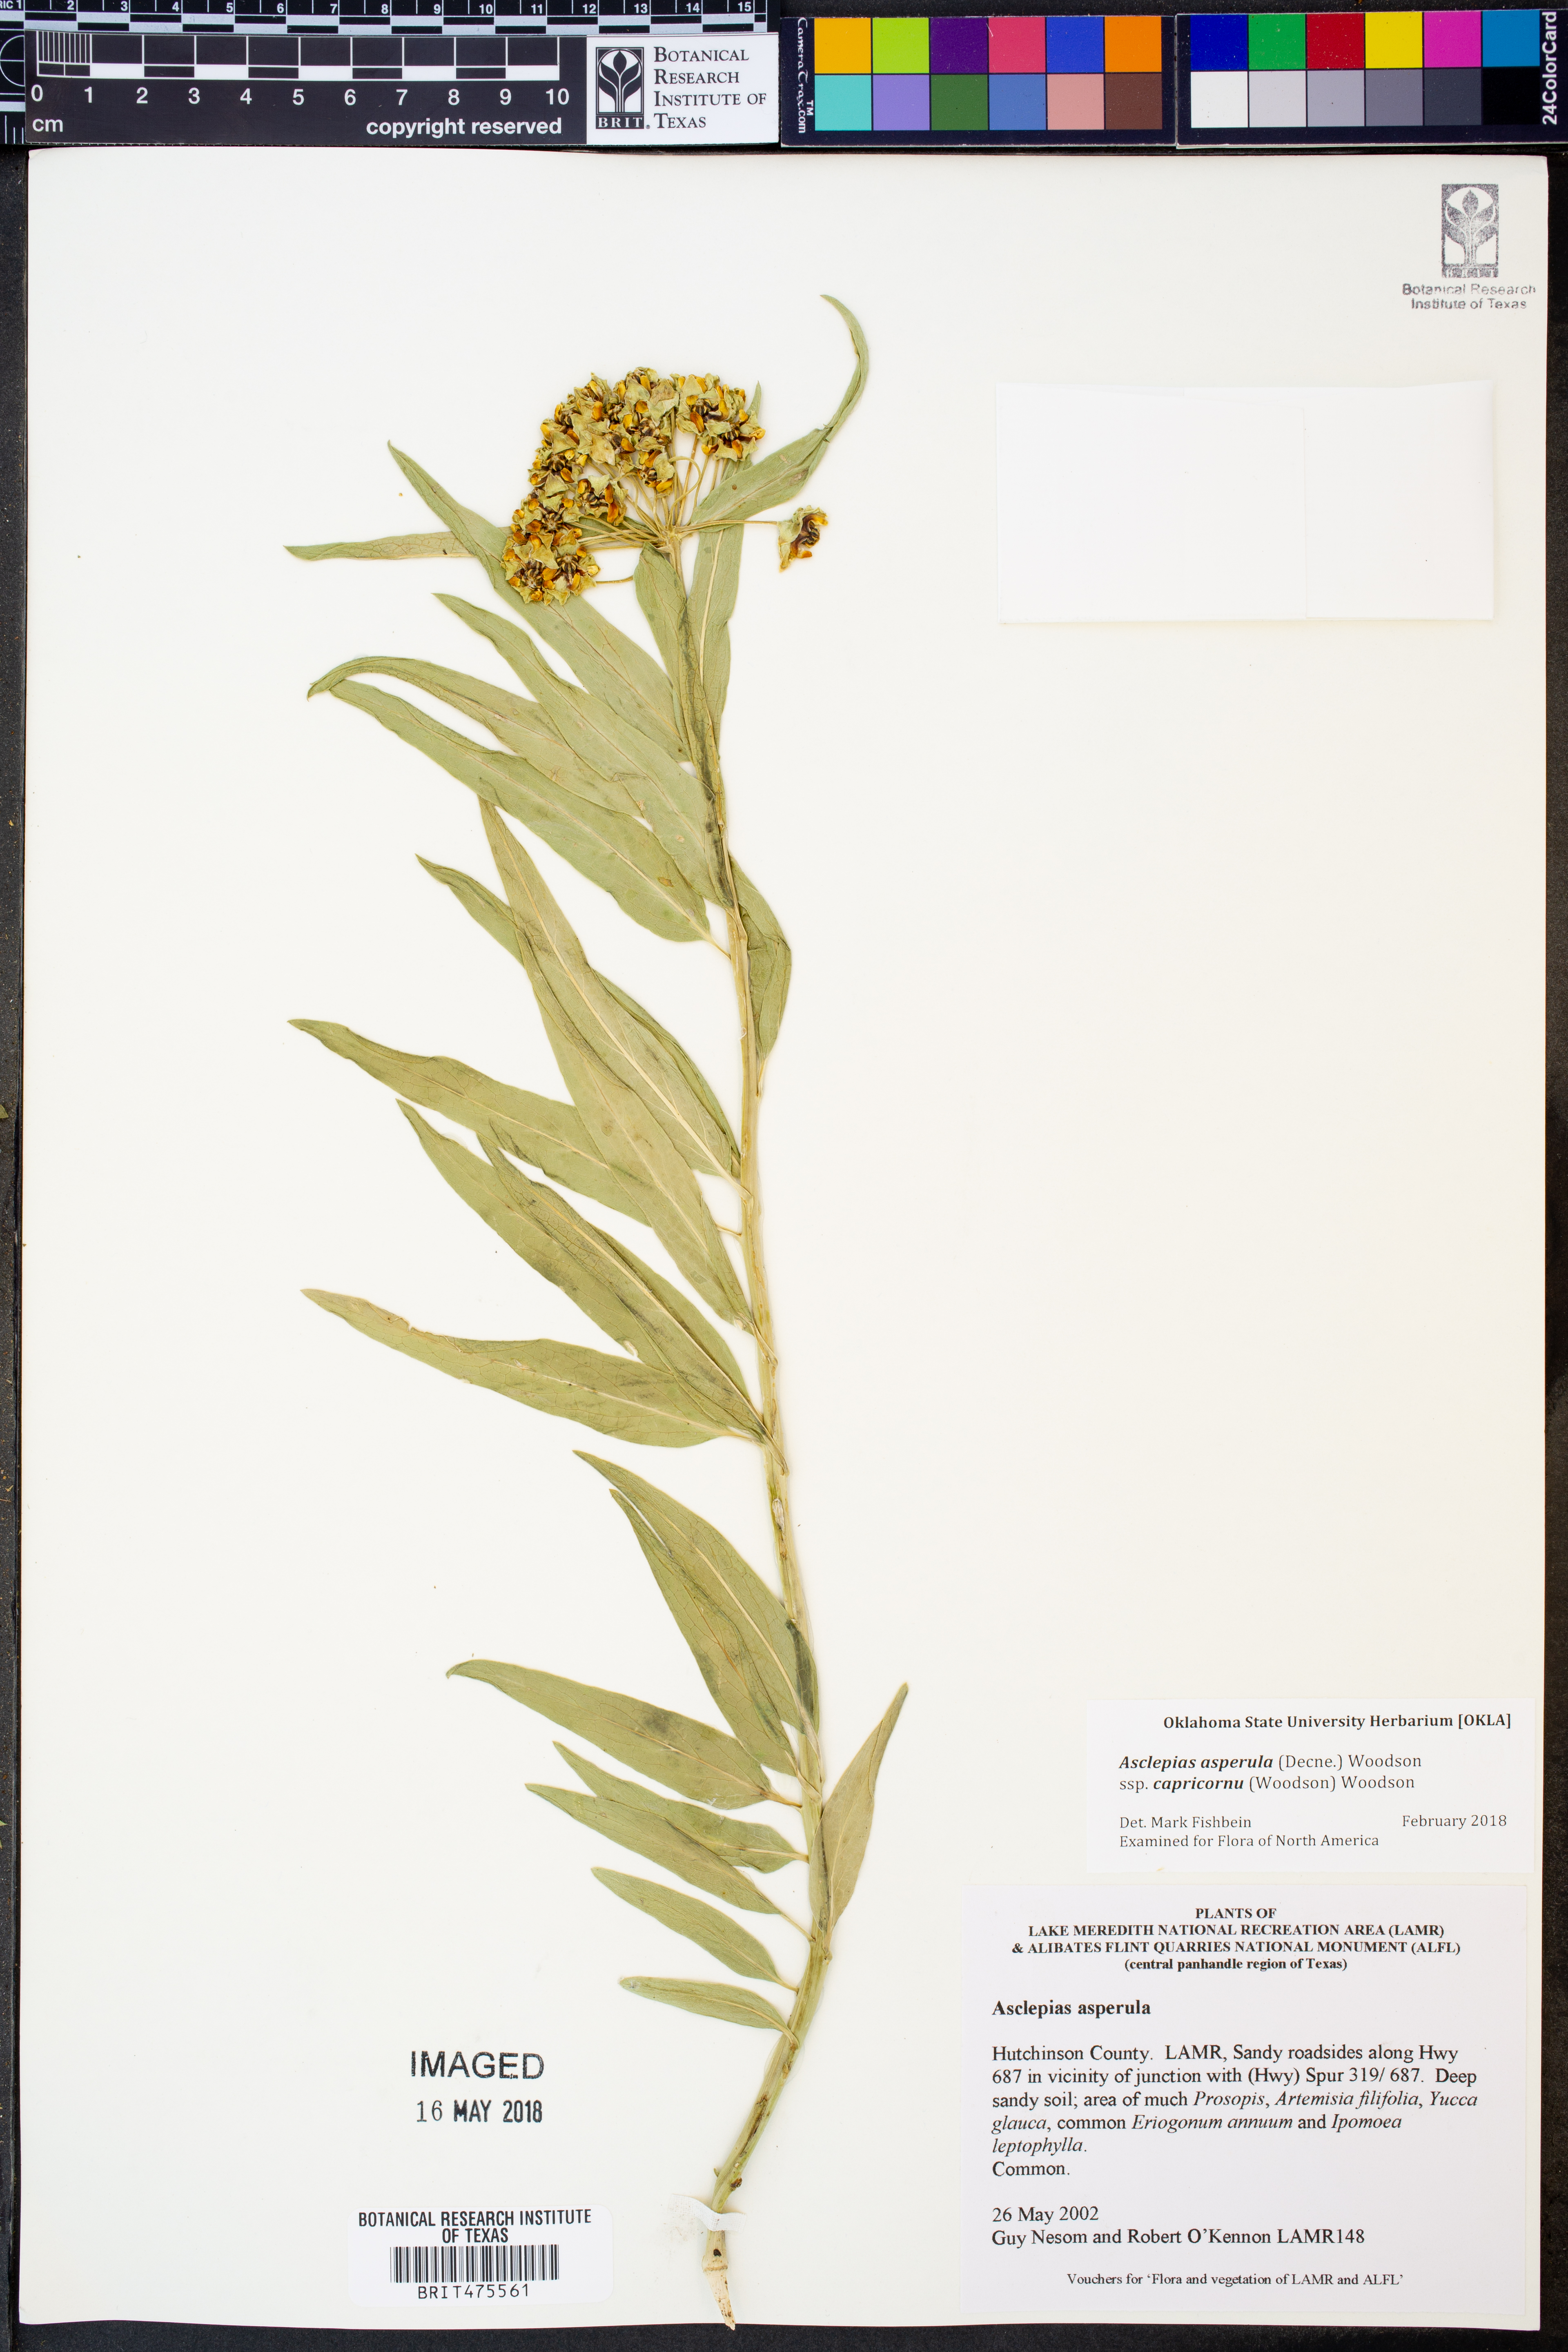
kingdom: Plantae
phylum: Tracheophyta
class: Magnoliopsida
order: Gentianales
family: Apocynaceae
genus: Asclepias
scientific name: Asclepias asperula
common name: Antelope horns
